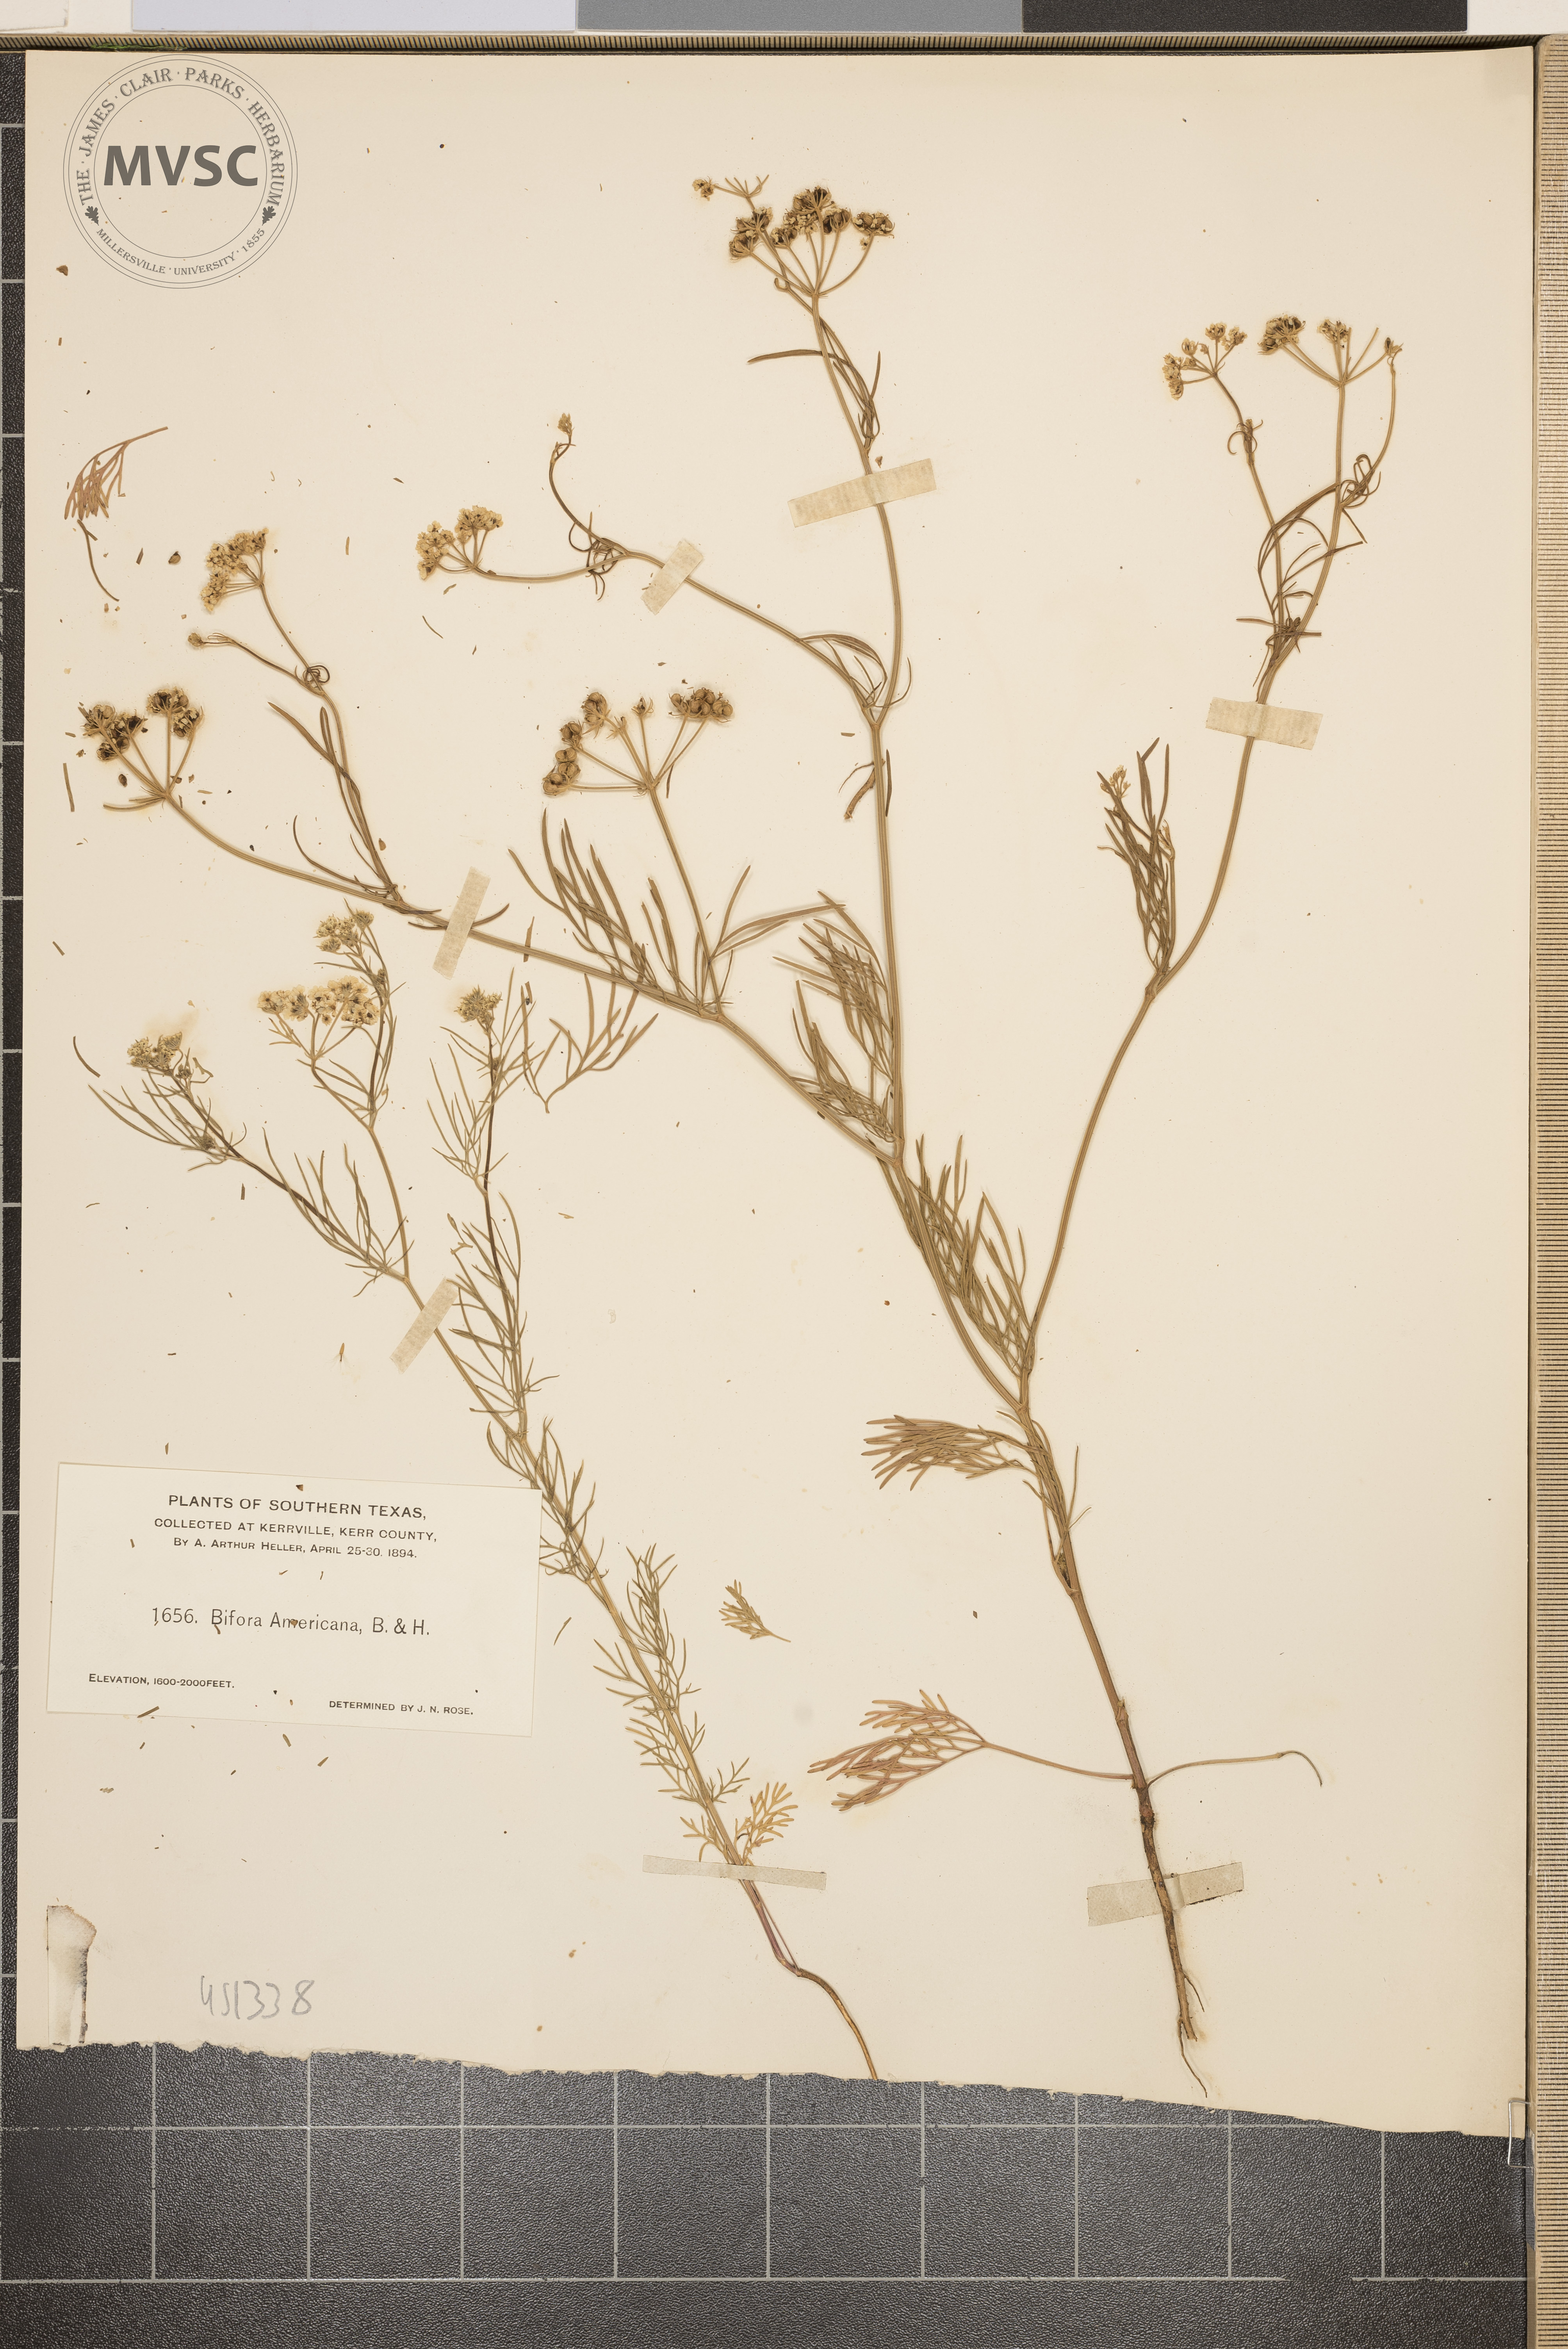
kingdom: Plantae
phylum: Tracheophyta
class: Magnoliopsida
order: Apiales
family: Apiaceae
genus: Bifora
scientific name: Bifora americana
